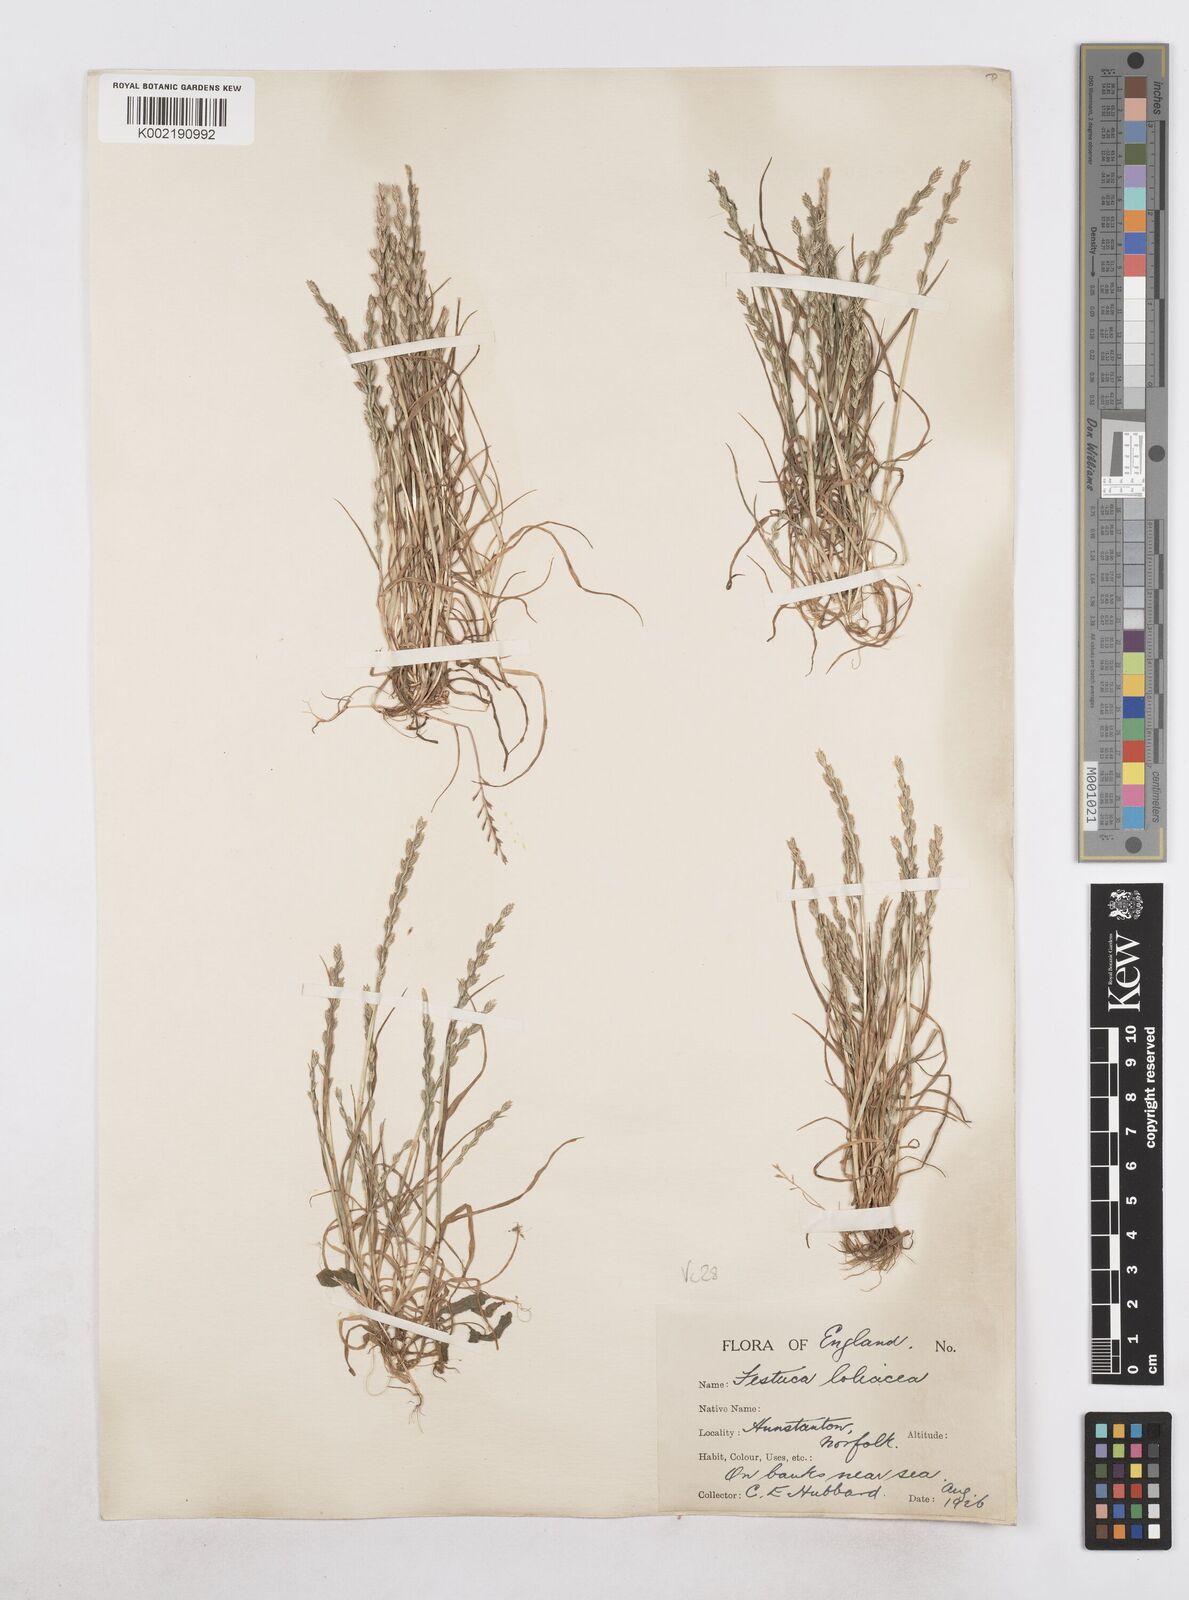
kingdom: Plantae
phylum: Tracheophyta
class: Liliopsida
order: Poales
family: Poaceae
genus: Catapodium
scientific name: Catapodium marinum
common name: Sea fern-grass
